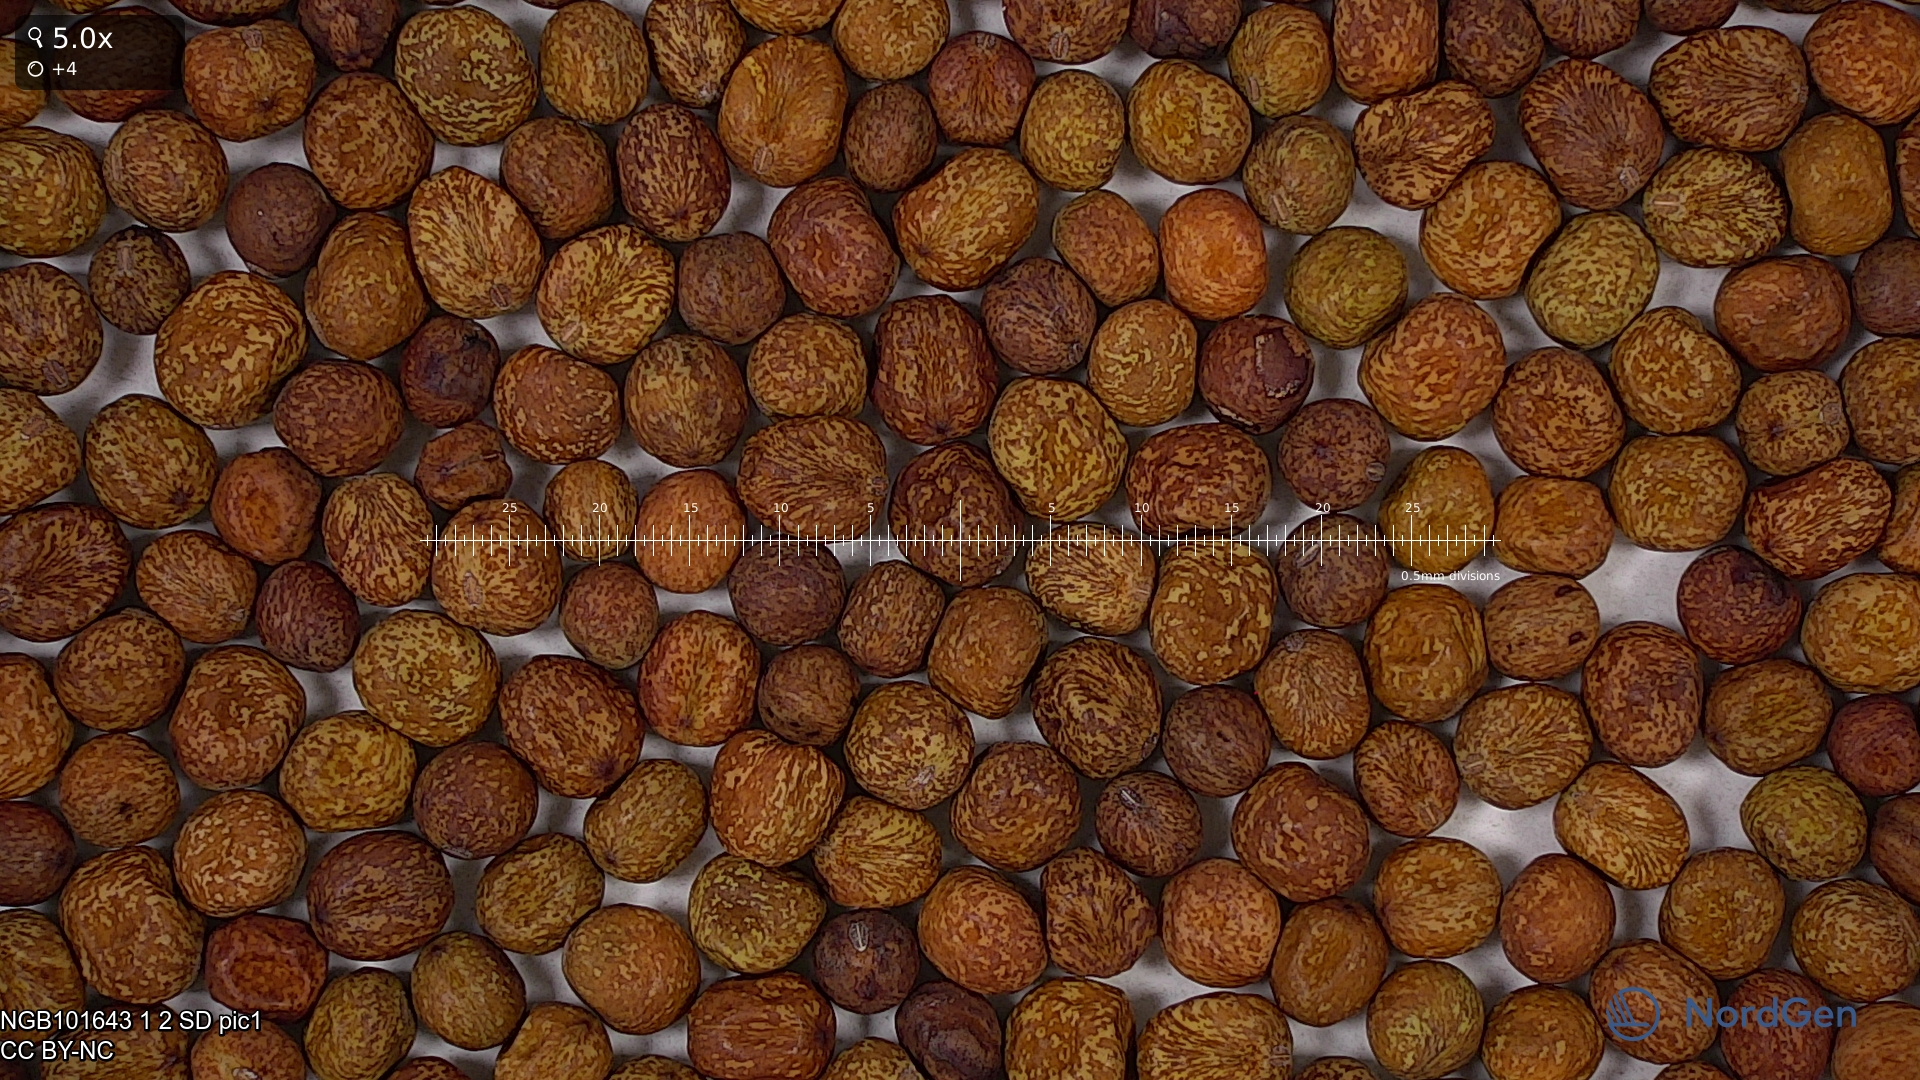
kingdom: Plantae
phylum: Tracheophyta
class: Magnoliopsida
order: Fabales
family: Fabaceae
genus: Lathyrus
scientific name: Lathyrus oleraceus
